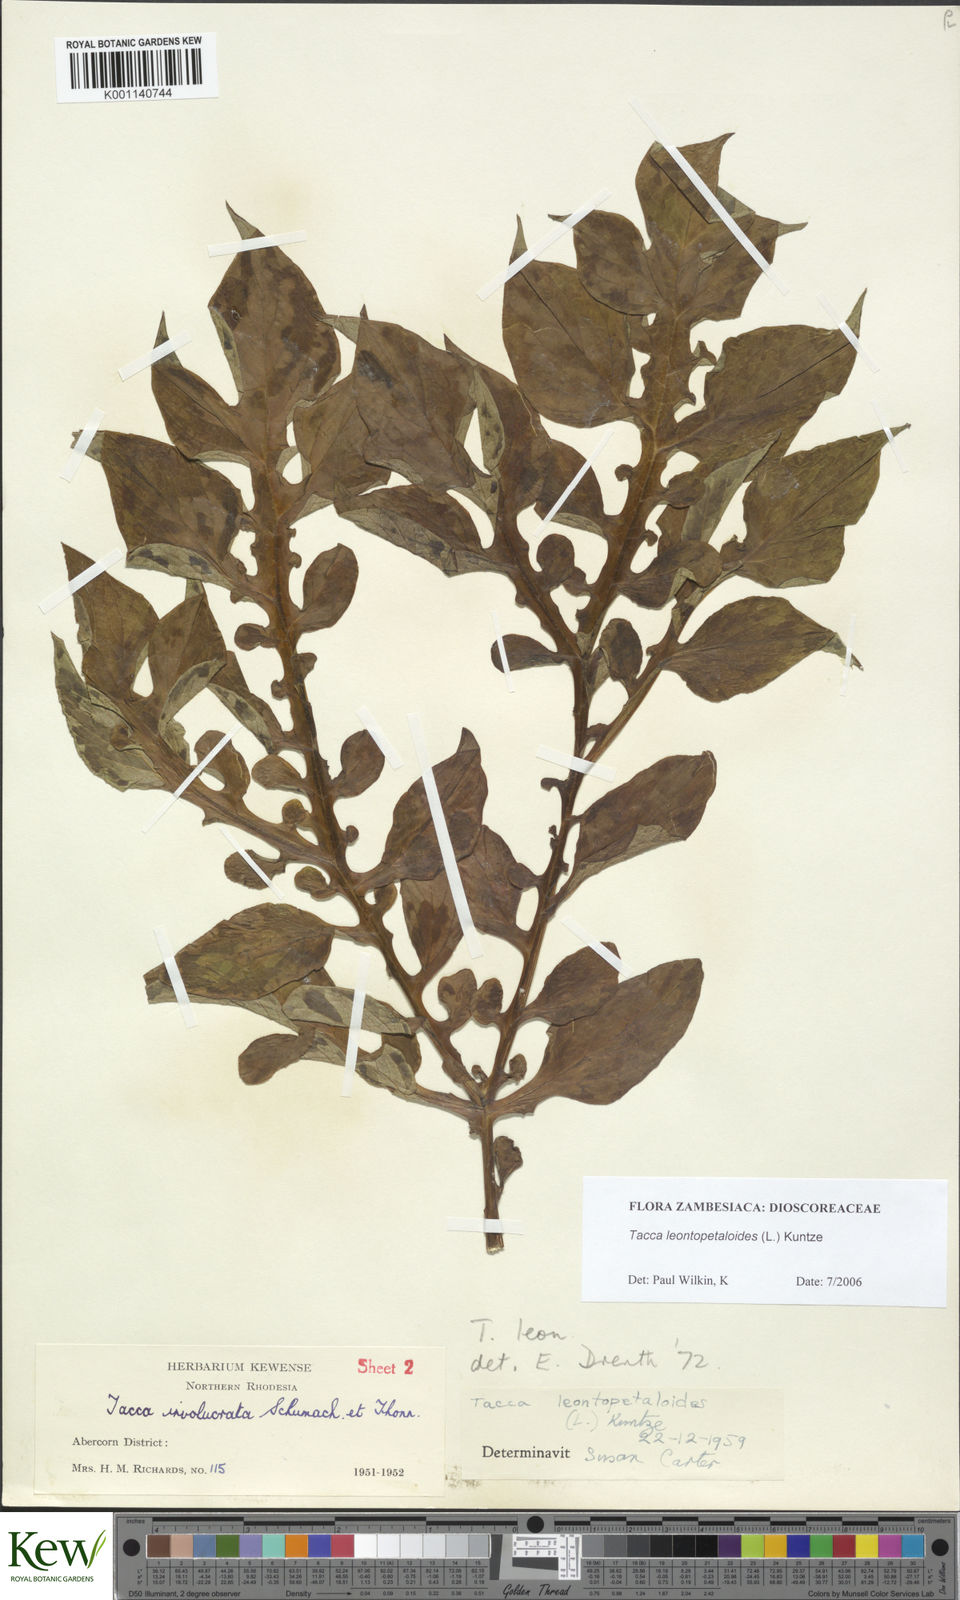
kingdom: Plantae
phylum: Tracheophyta
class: Liliopsida
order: Dioscoreales
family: Dioscoreaceae
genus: Tacca
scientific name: Tacca leontopetaloides
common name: Arrowroot
